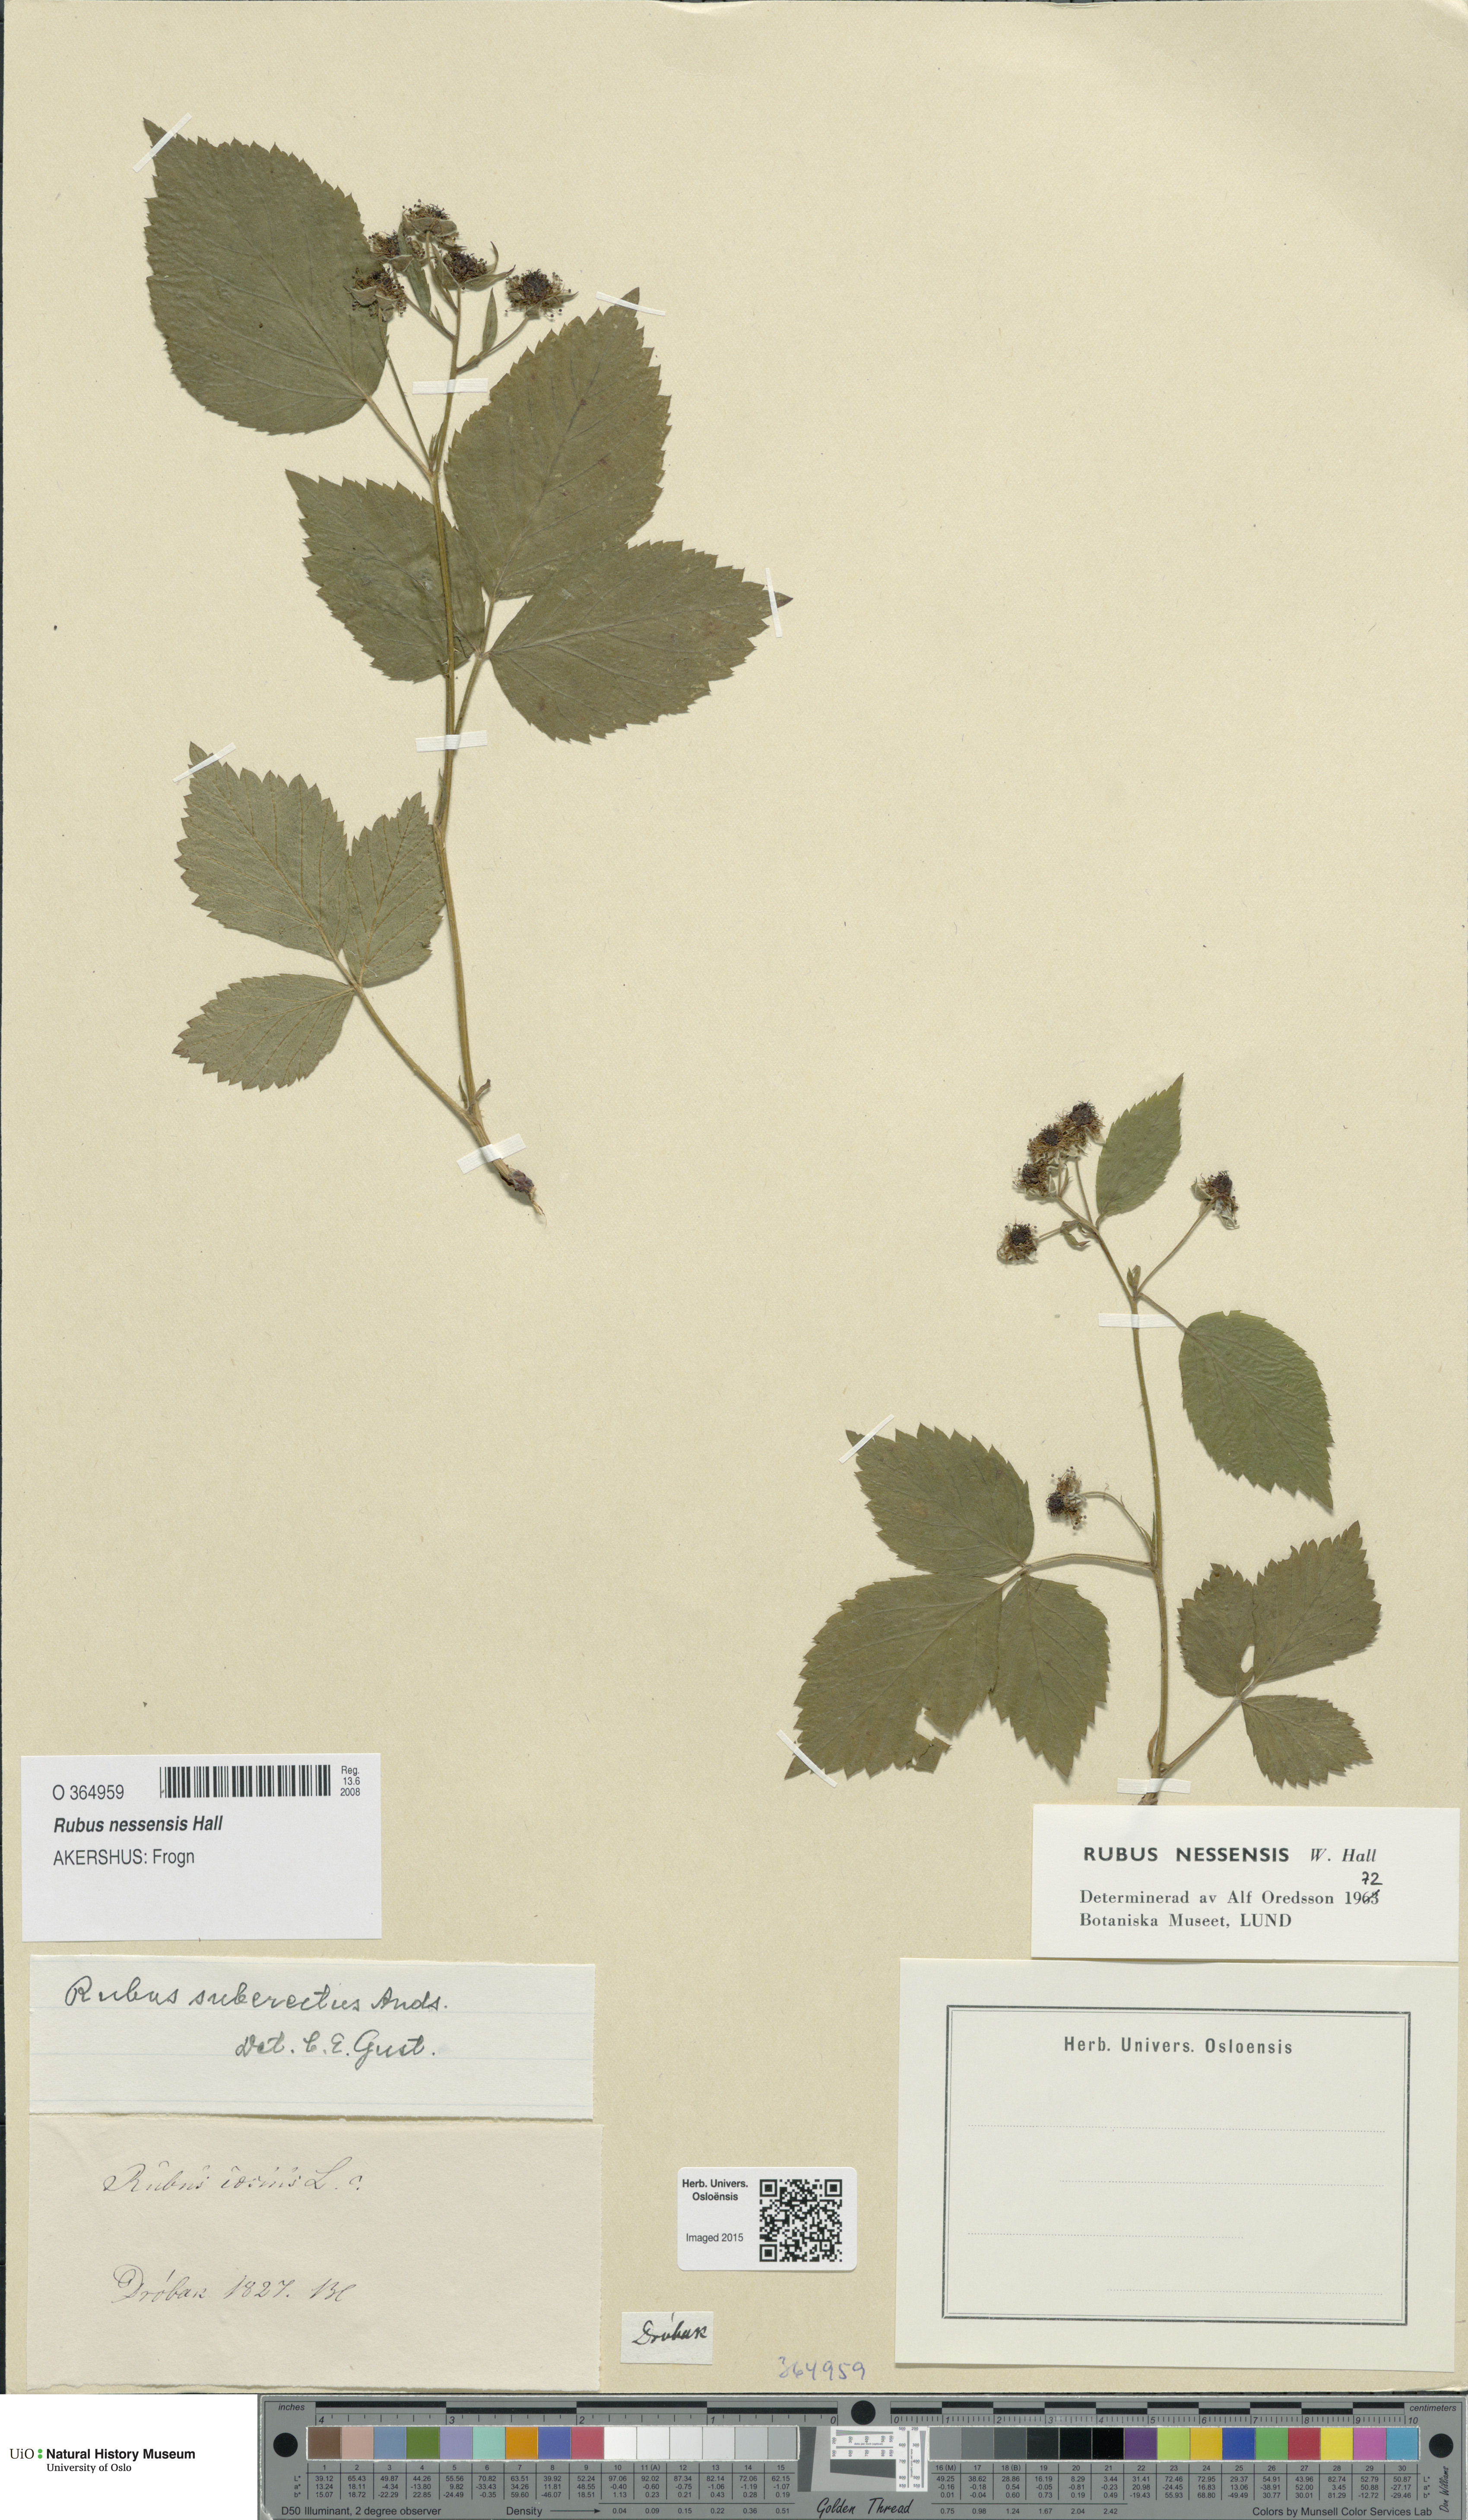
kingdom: Plantae
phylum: Tracheophyta
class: Magnoliopsida
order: Rosales
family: Rosaceae
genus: Rubus
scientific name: Rubus polonicus
